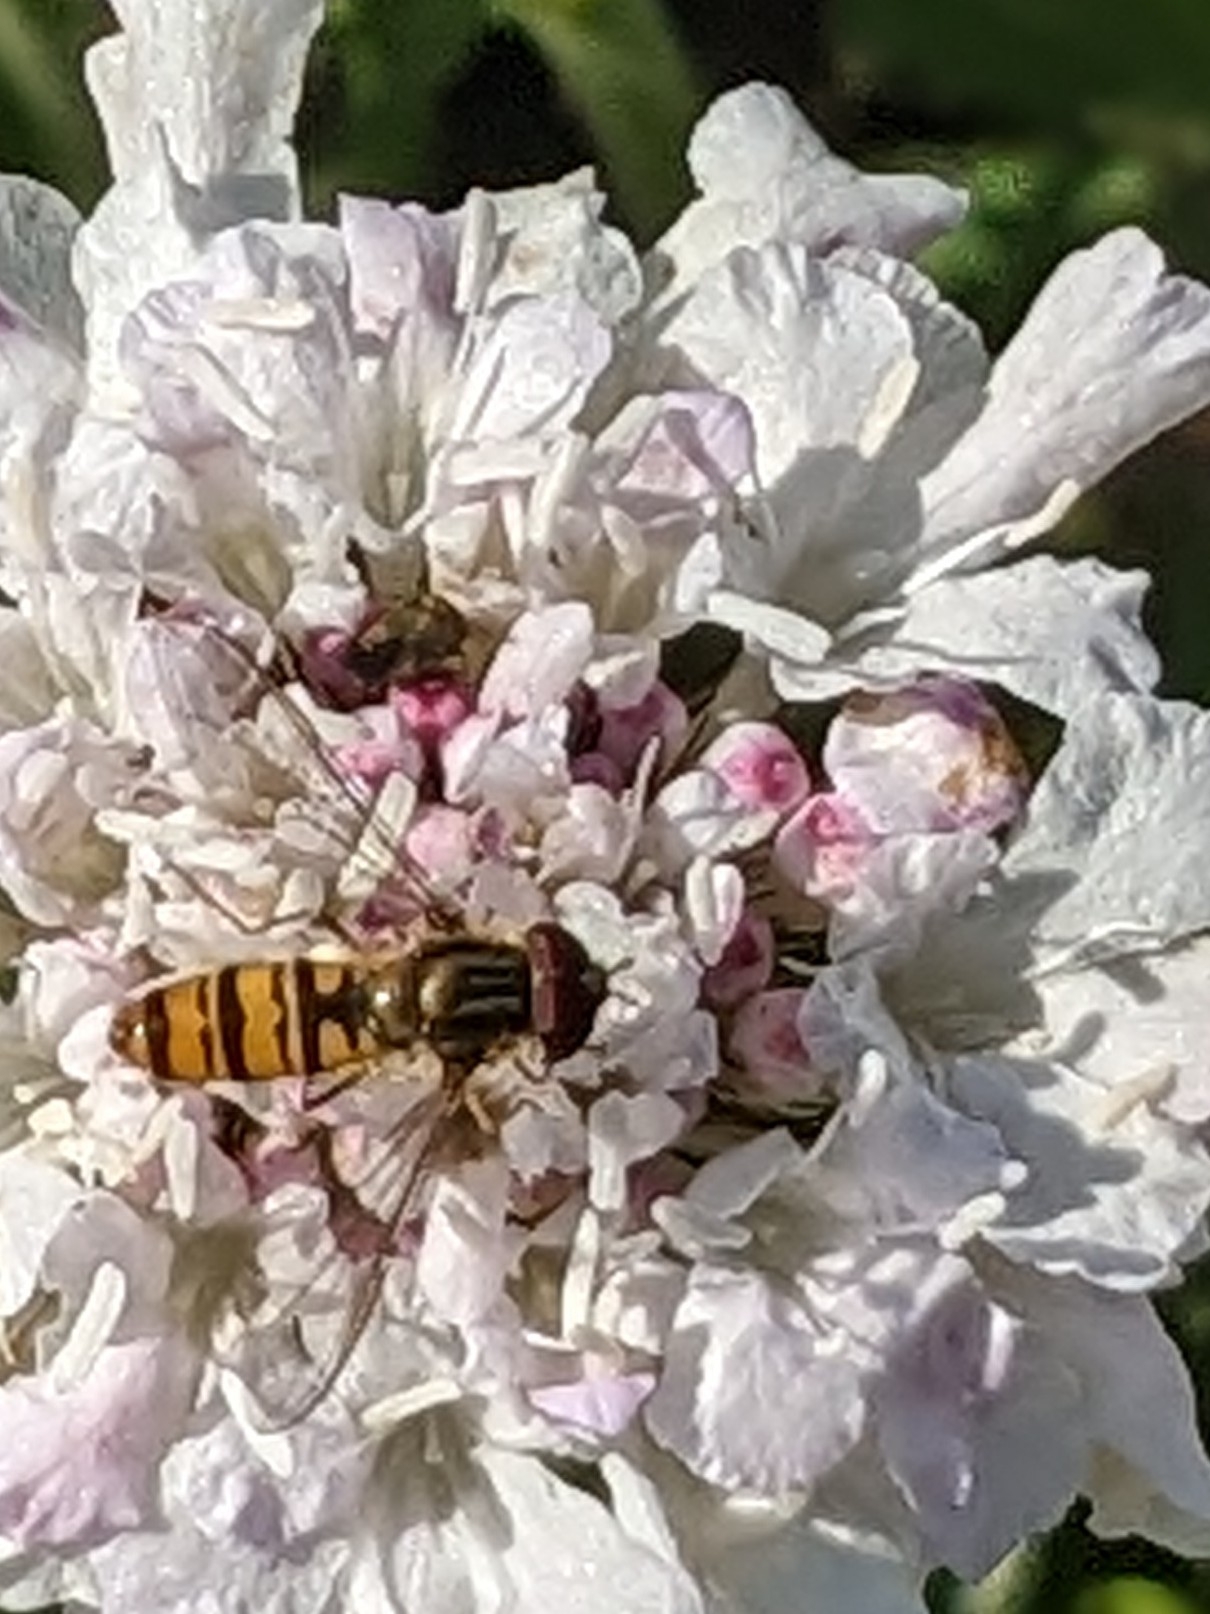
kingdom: Animalia
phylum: Arthropoda
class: Insecta
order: Diptera
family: Syrphidae
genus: Episyrphus
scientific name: Episyrphus balteatus
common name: Dobbeltbåndet svirreflue
